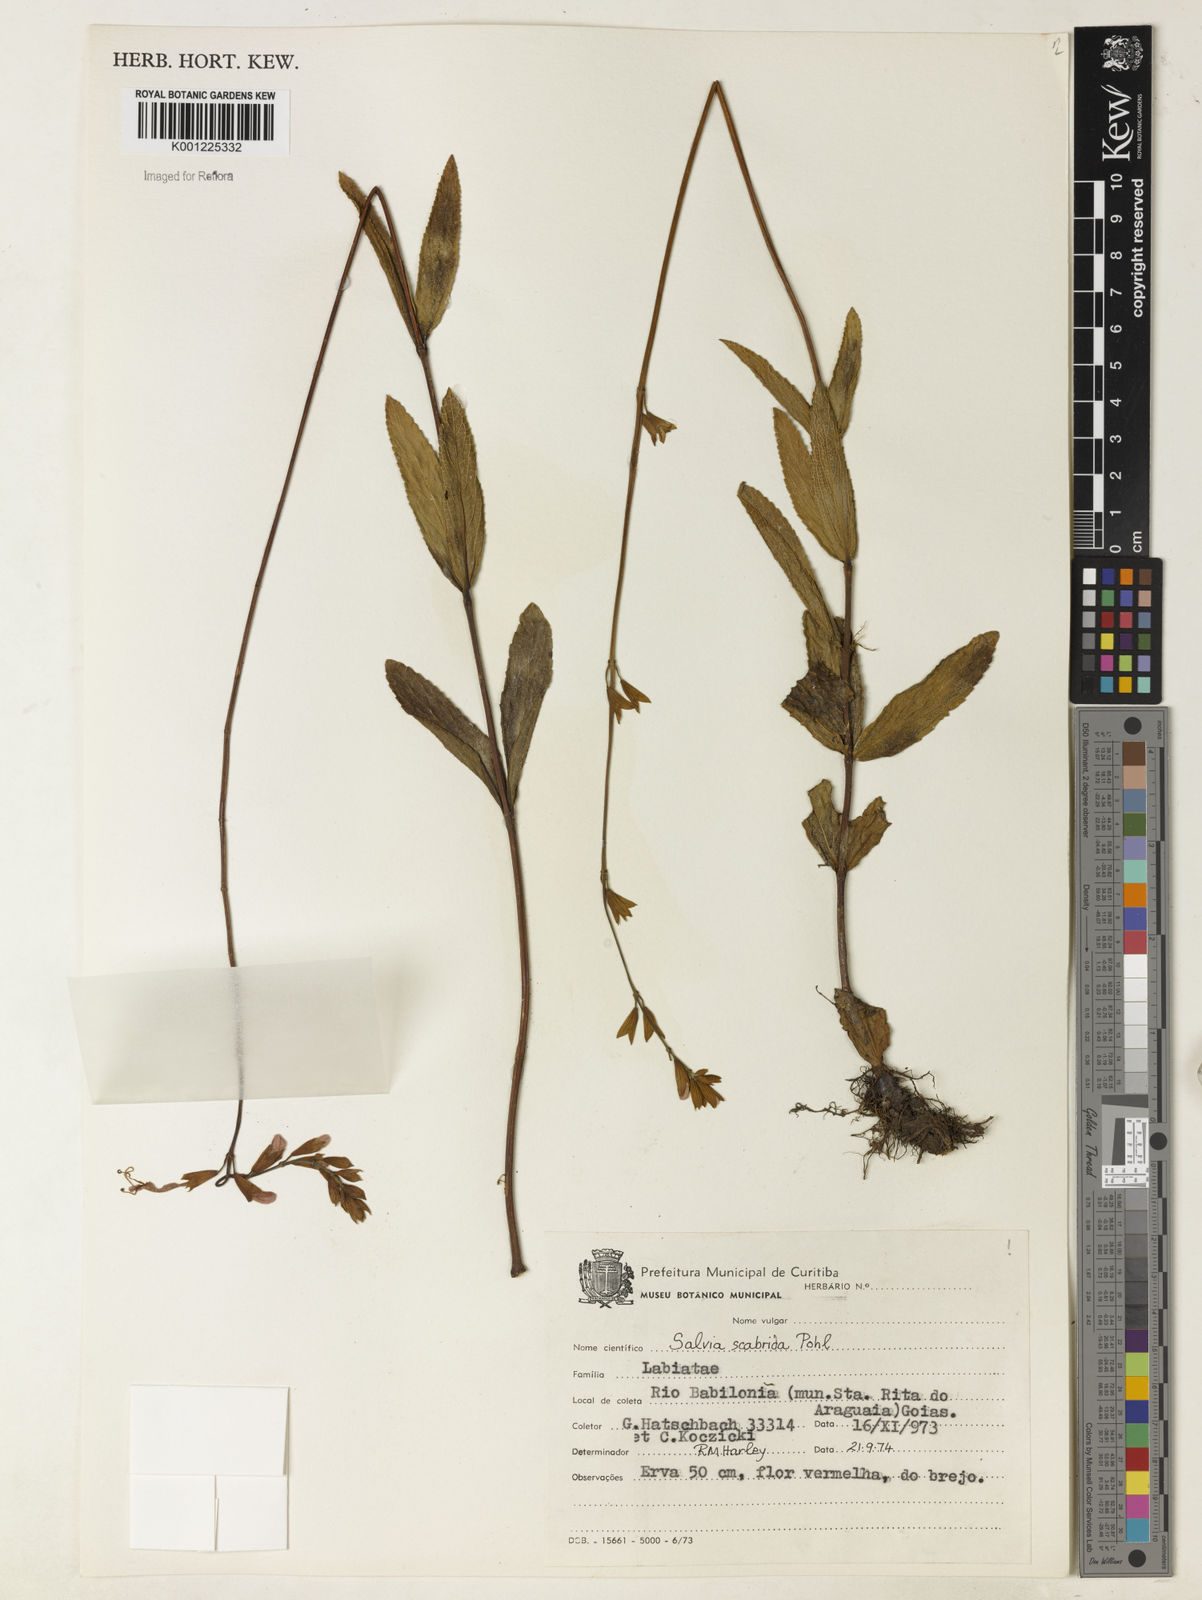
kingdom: Plantae
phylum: Tracheophyta
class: Magnoliopsida
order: Lamiales
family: Lamiaceae
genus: Salvia
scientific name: Salvia scabrida
